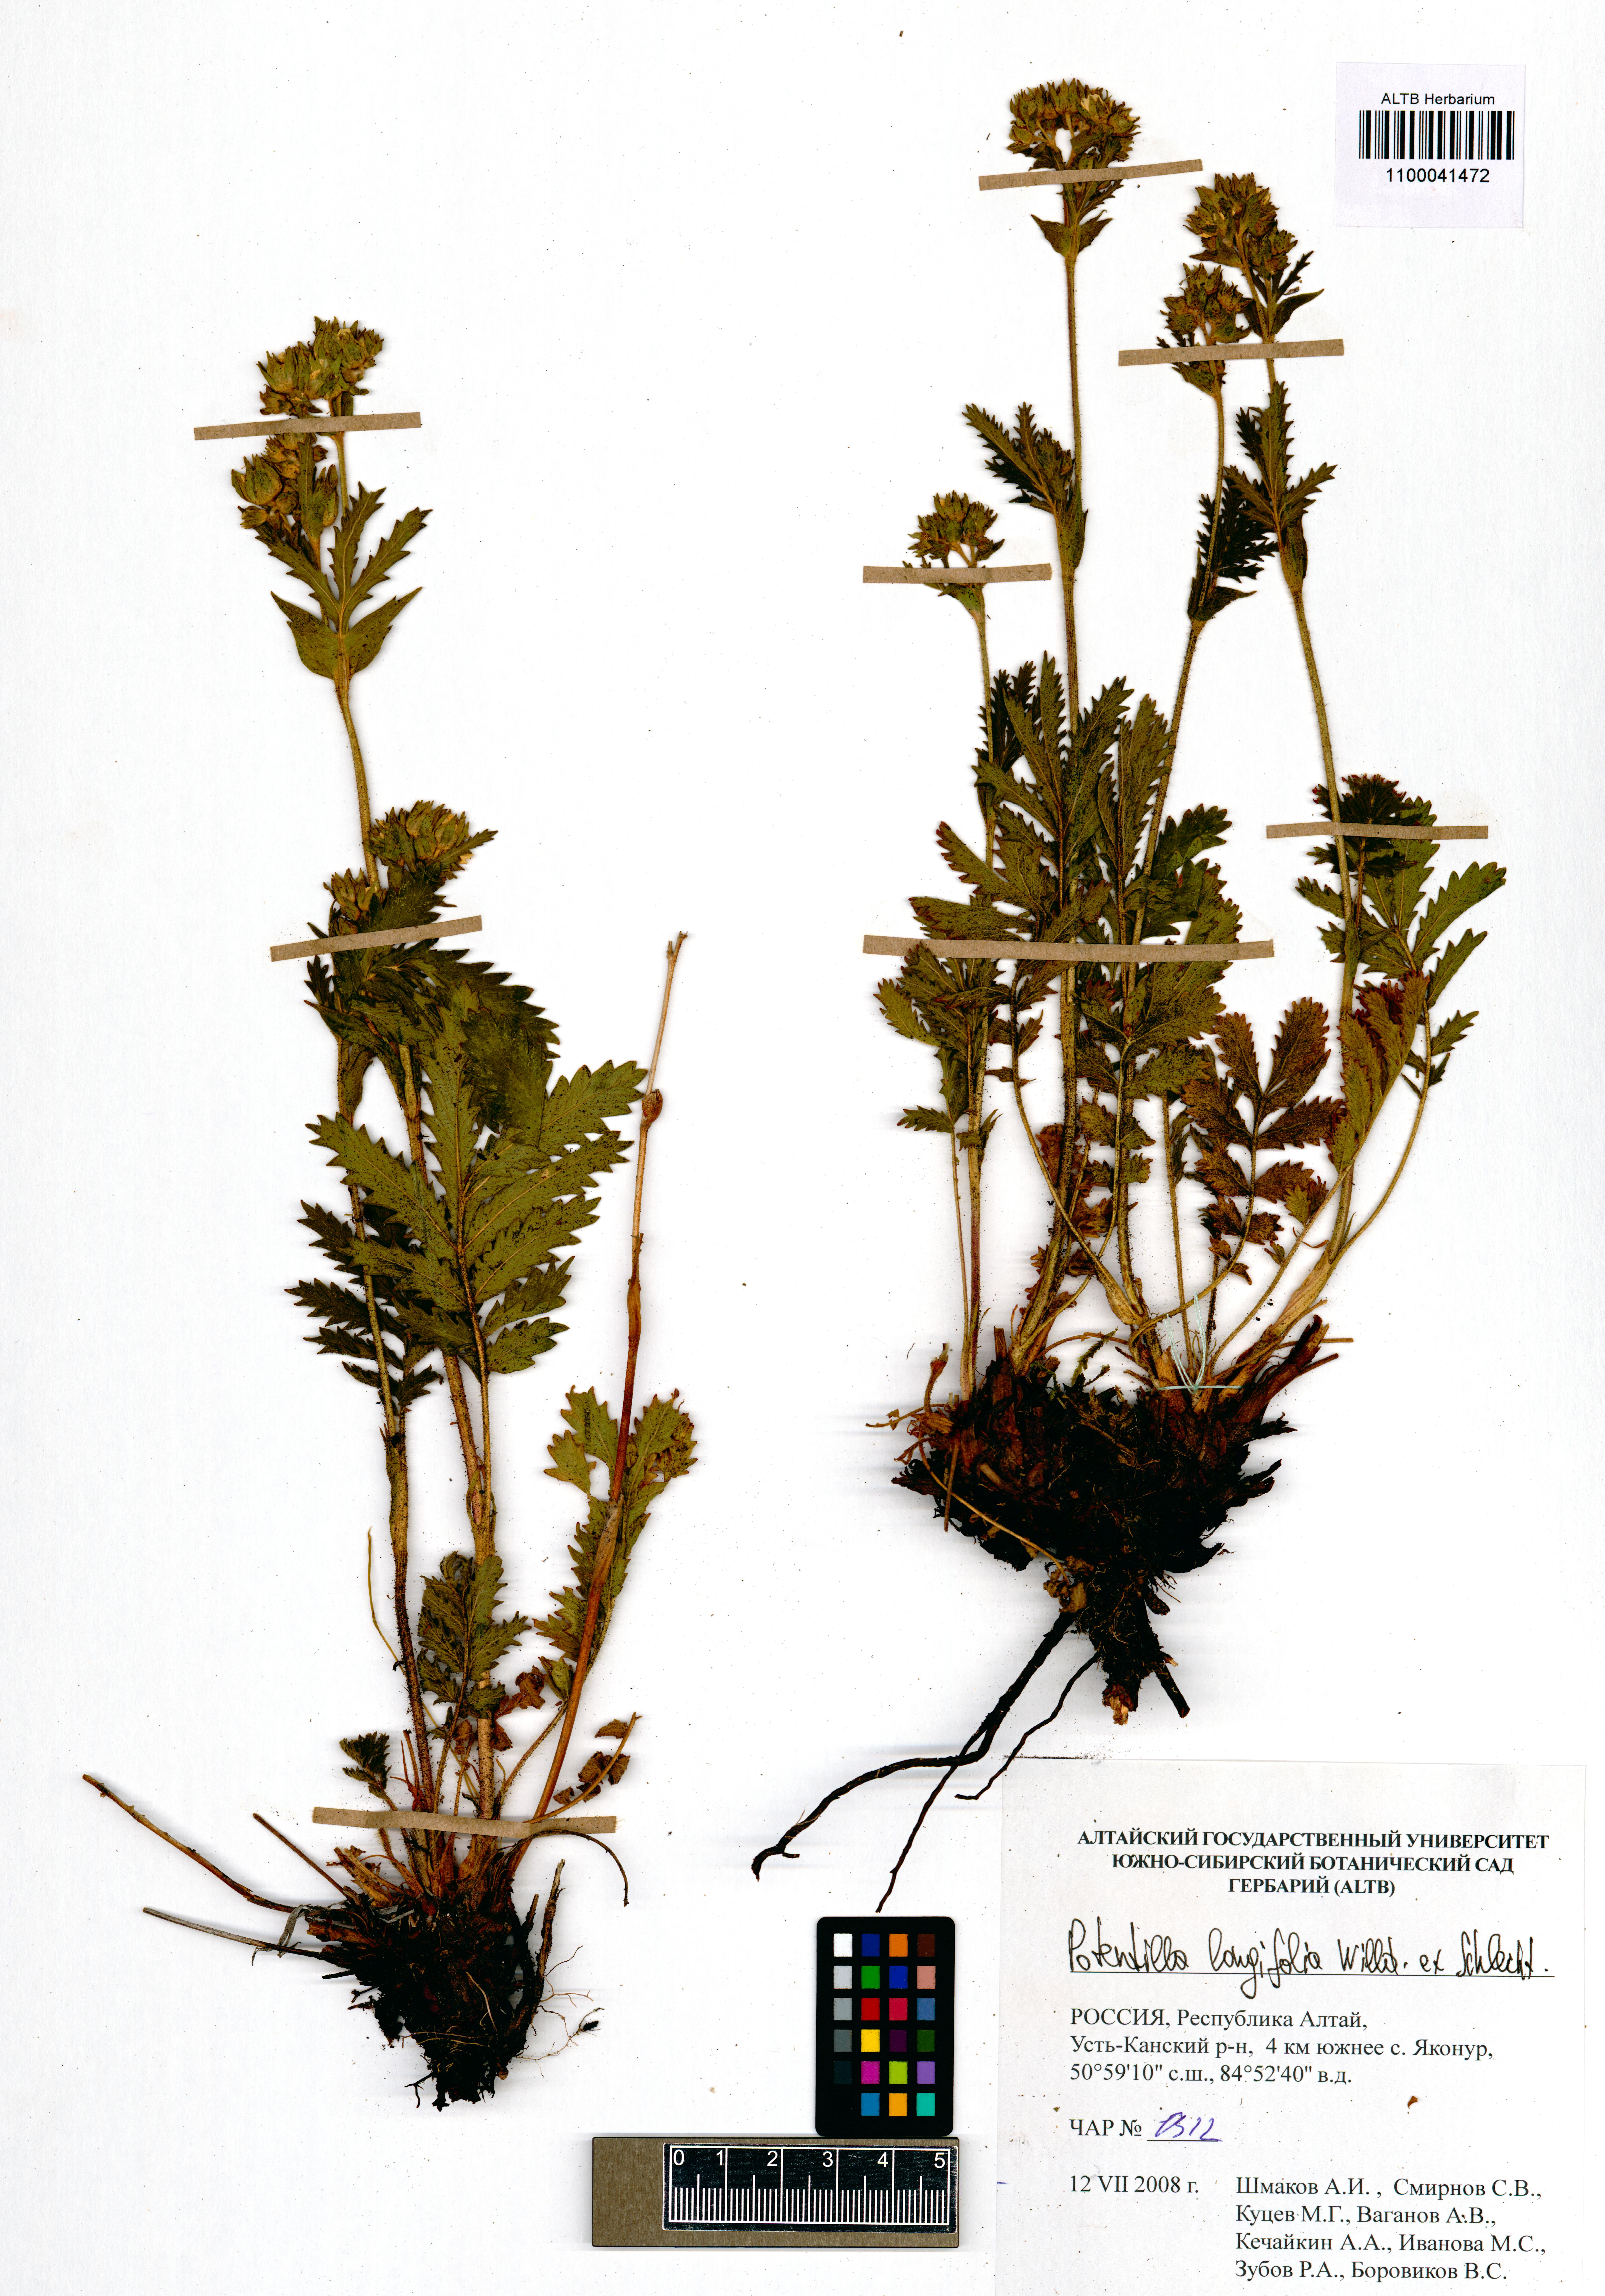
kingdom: Plantae
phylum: Tracheophyta
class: Magnoliopsida
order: Rosales
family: Rosaceae
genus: Potentilla
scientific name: Potentilla longifolia
